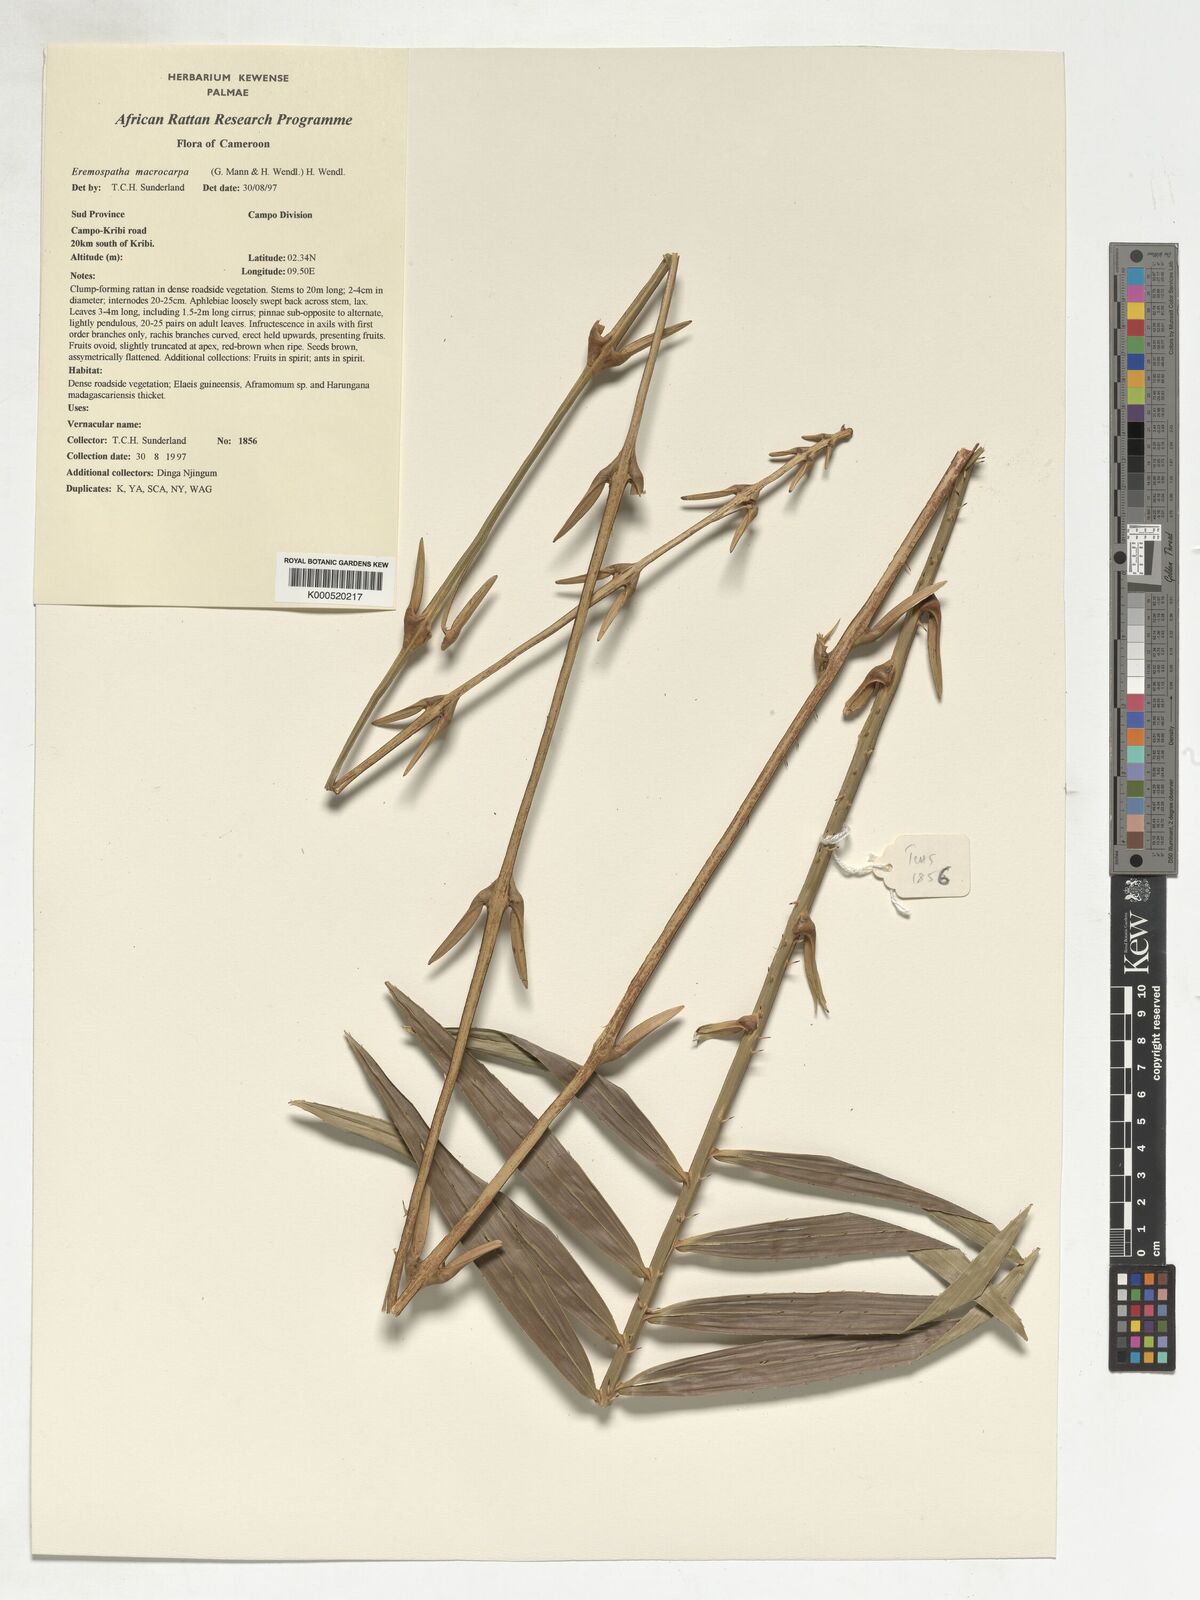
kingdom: Plantae
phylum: Tracheophyta
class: Liliopsida
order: Arecales
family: Arecaceae
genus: Eremospatha
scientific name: Eremospatha
